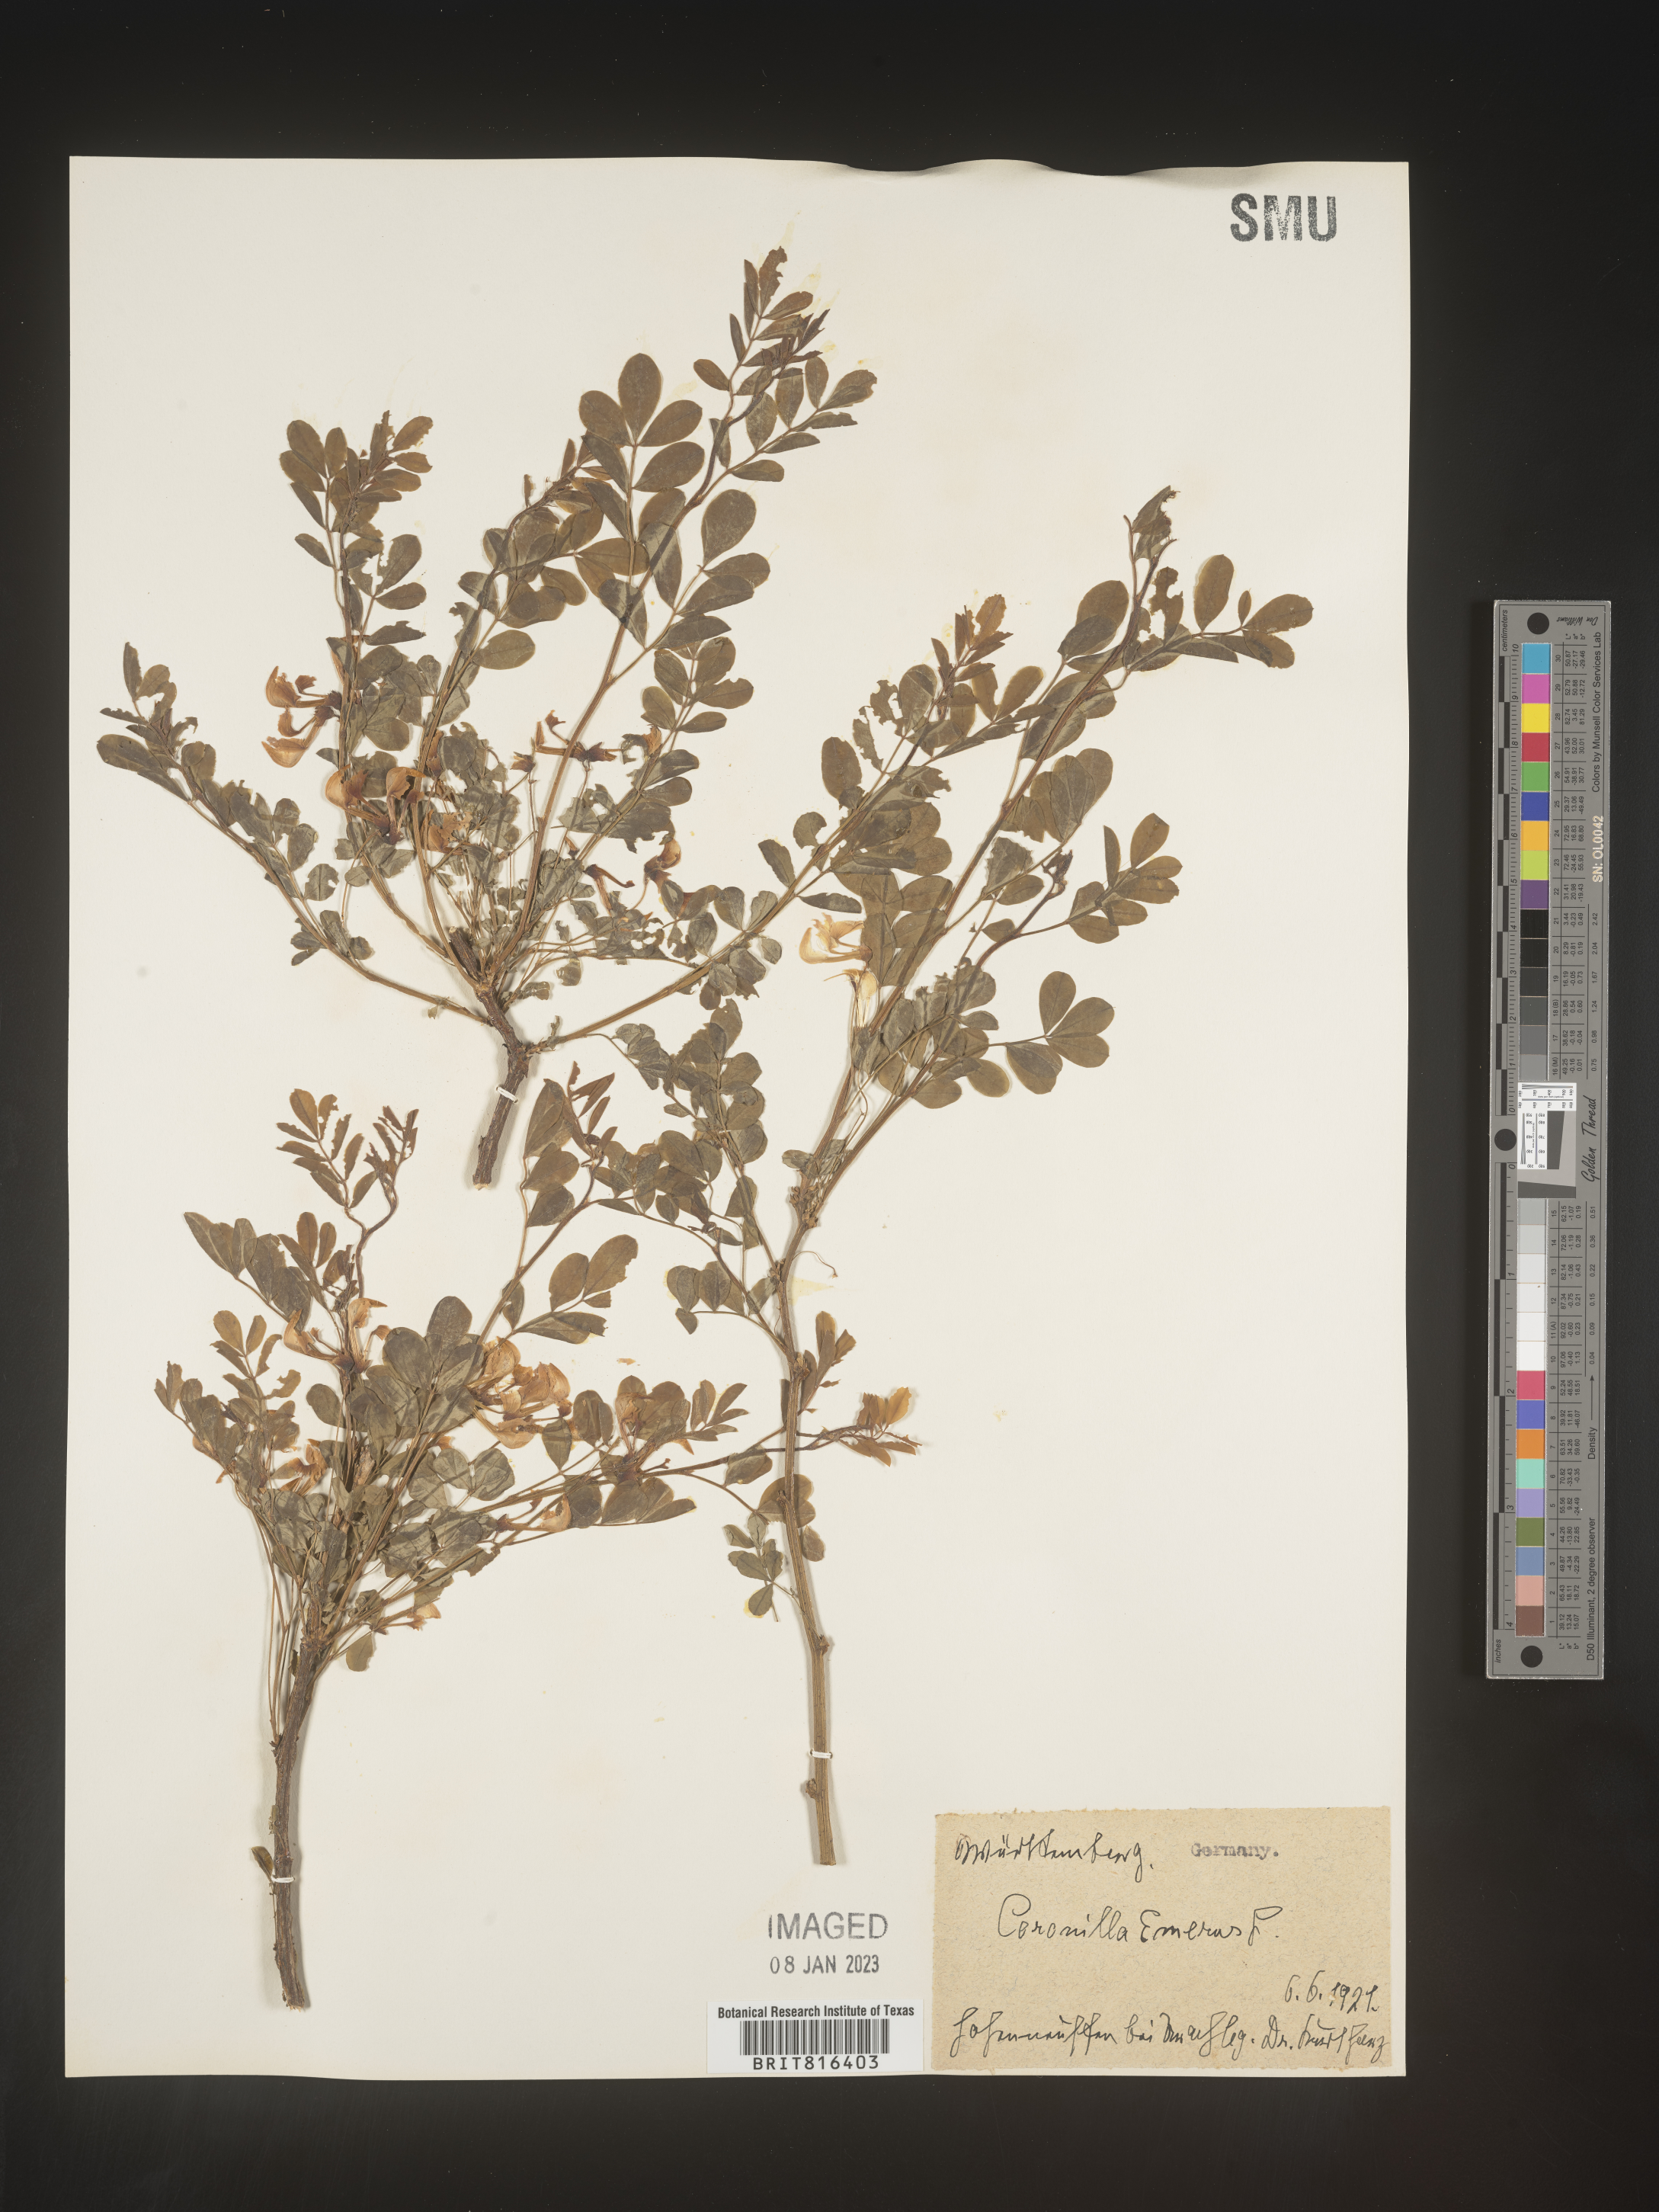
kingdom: Plantae
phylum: Tracheophyta
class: Magnoliopsida
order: Fabales
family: Fabaceae
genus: Coronilla
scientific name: Coronilla
